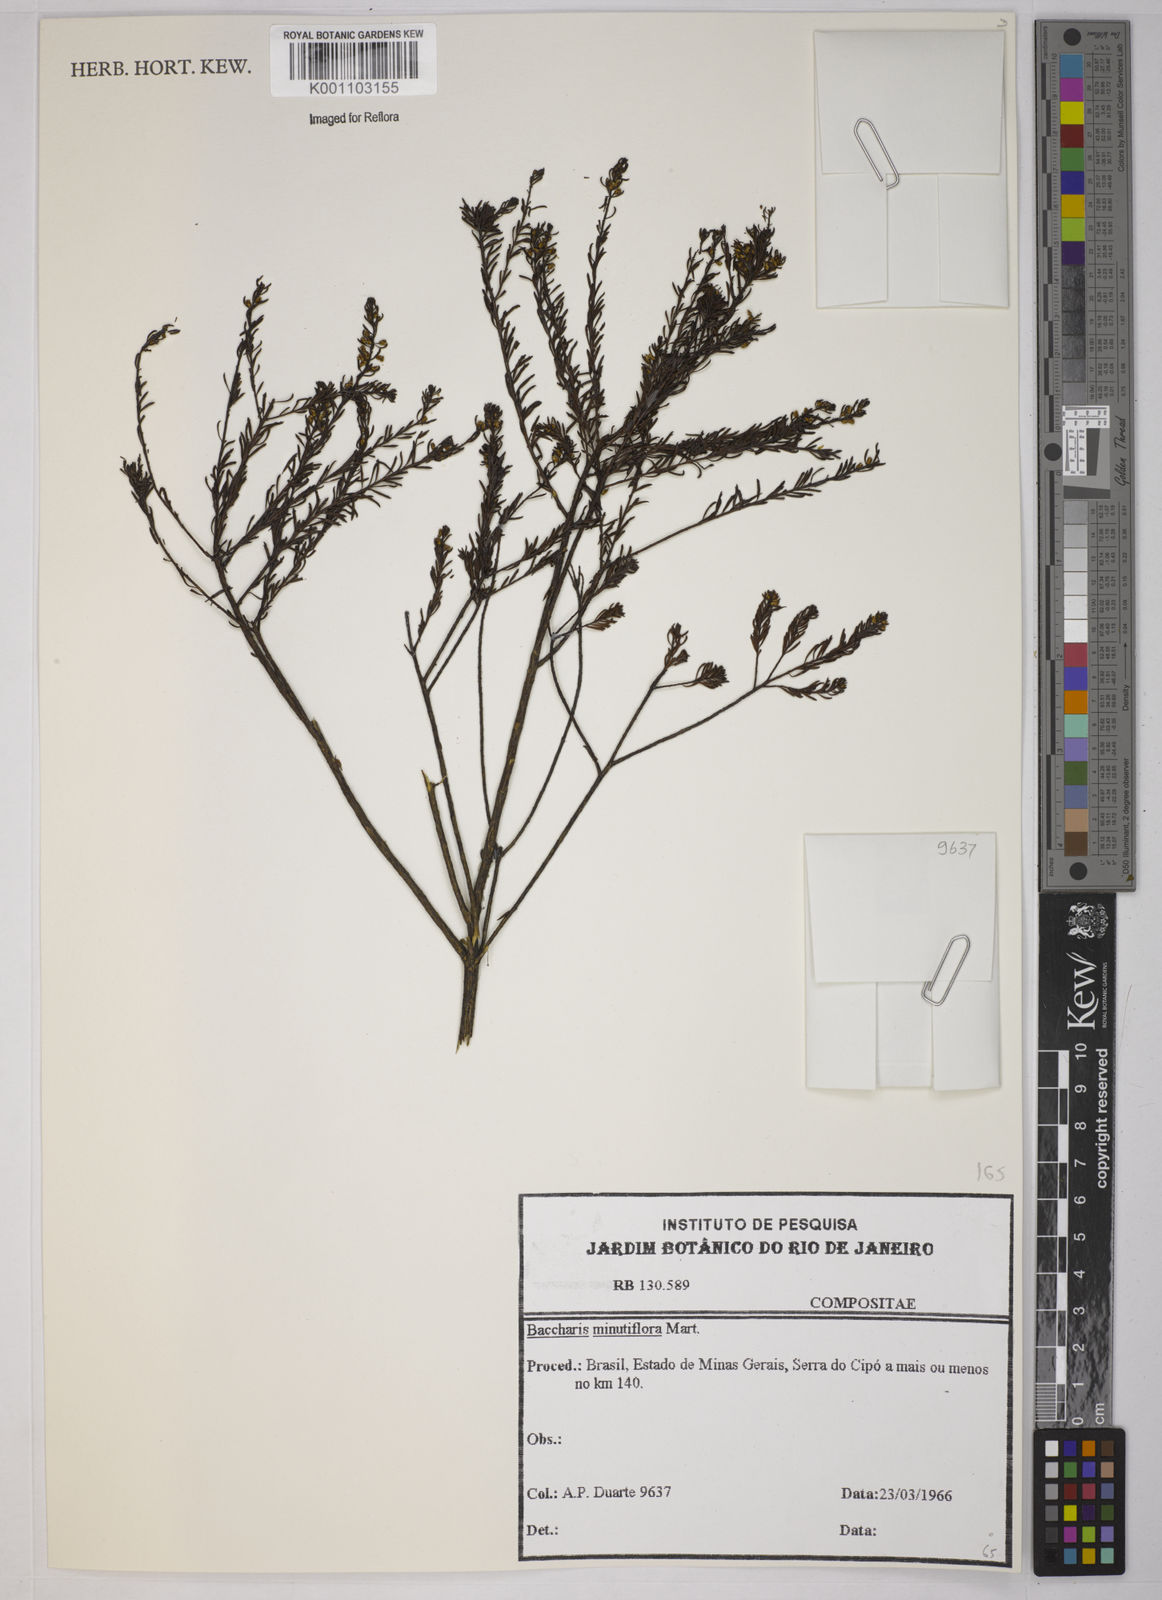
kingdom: Plantae
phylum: Tracheophyta
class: Magnoliopsida
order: Asterales
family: Asteraceae
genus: Baccharis
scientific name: Baccharis minutiflora
